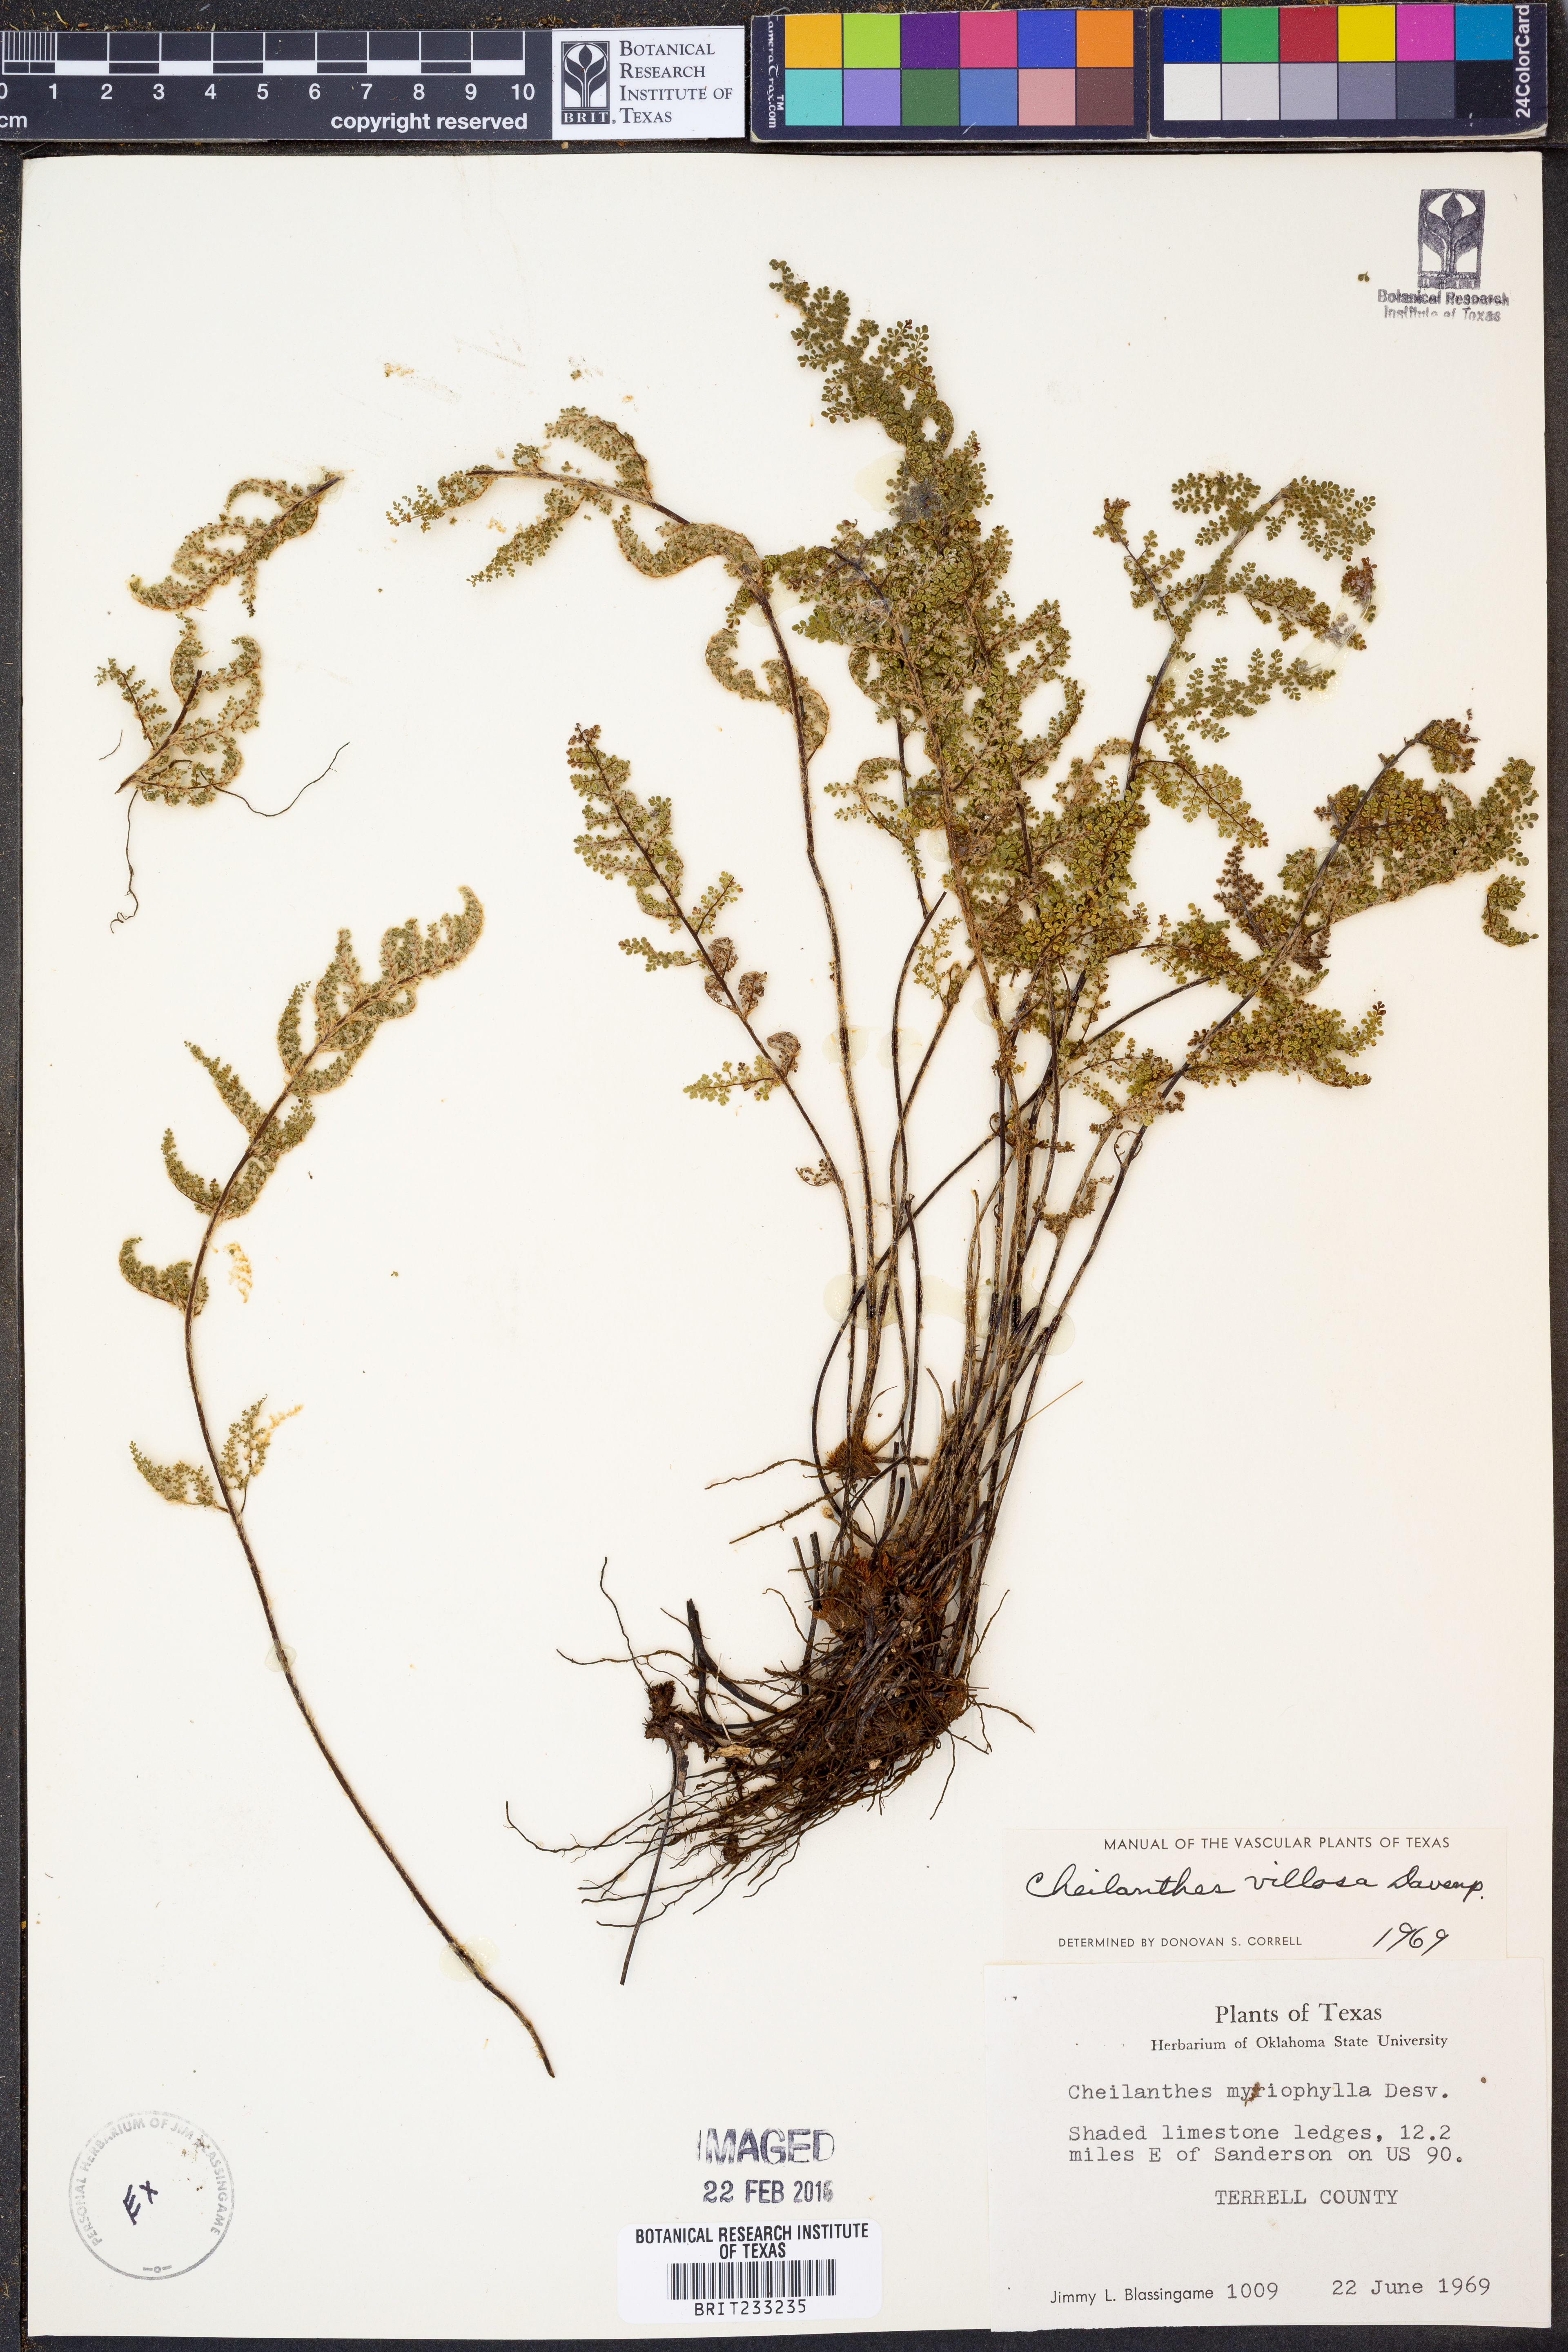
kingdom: Plantae
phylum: Tracheophyta
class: Polypodiopsida
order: Polypodiales
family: Pteridaceae
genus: Myriopteris
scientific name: Myriopteris windhamii
